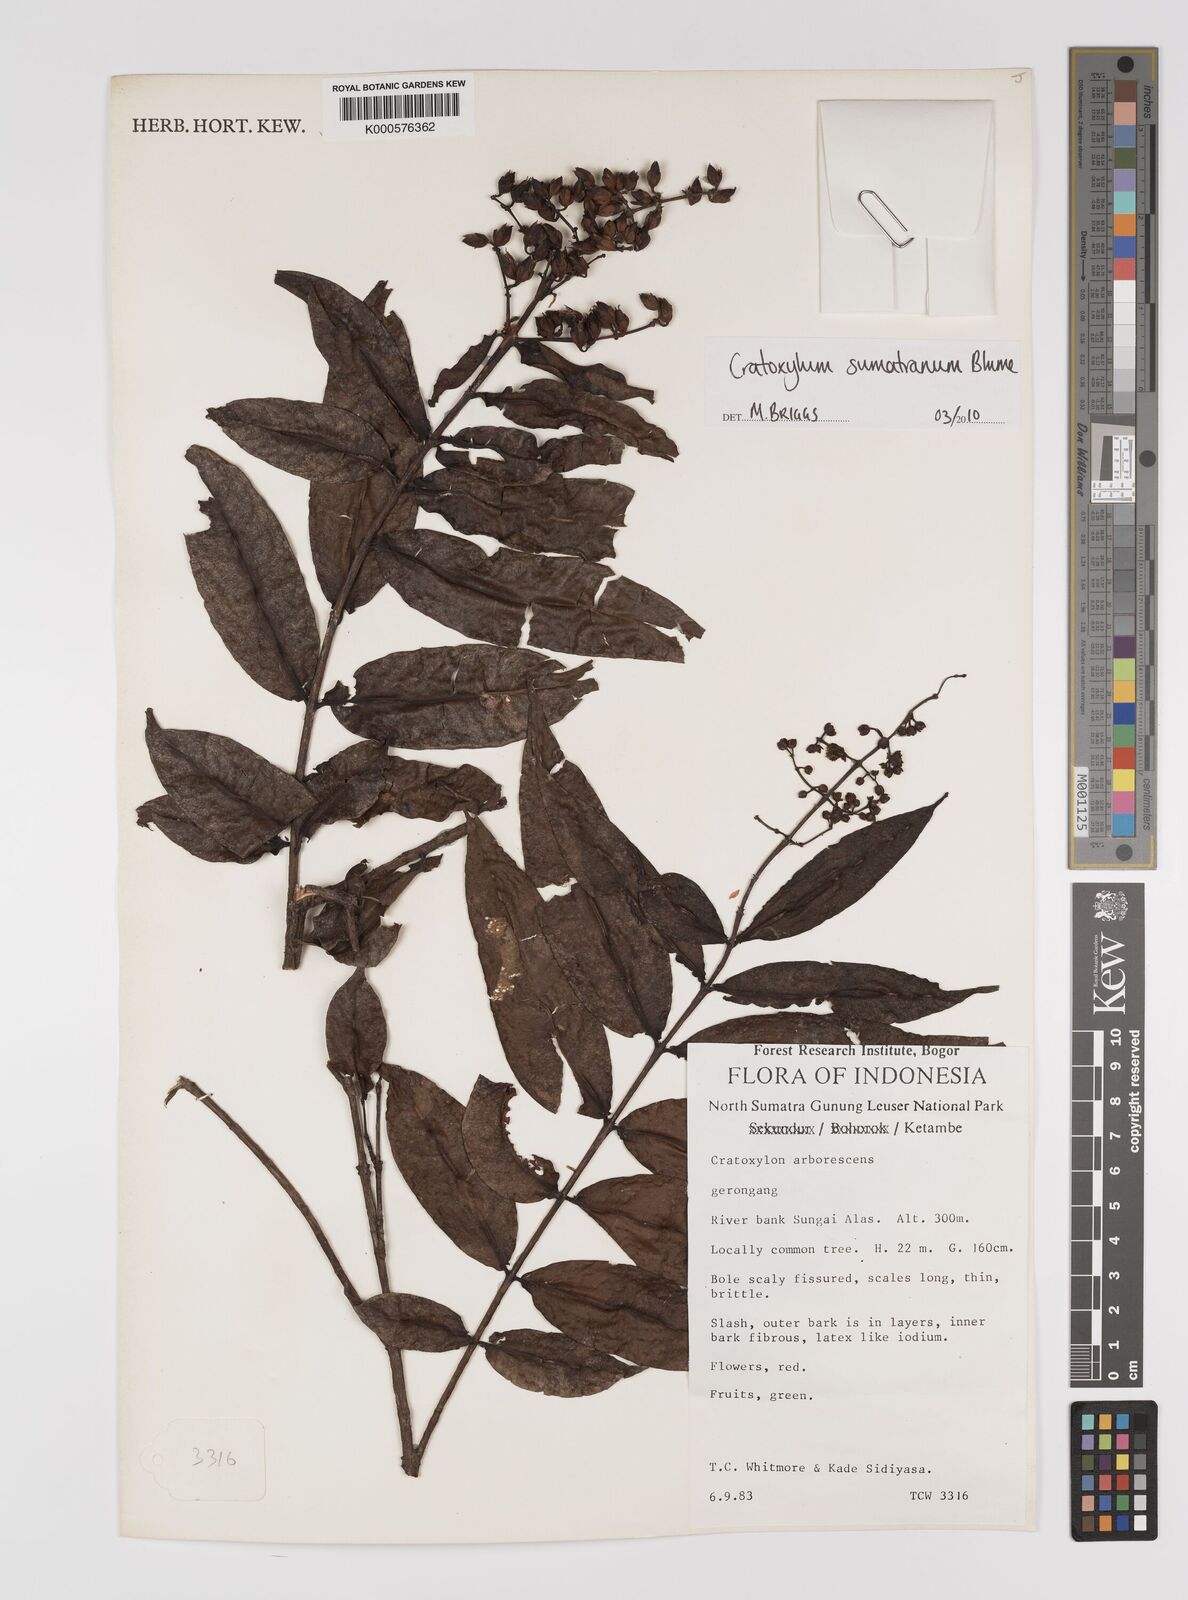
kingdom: Plantae
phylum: Tracheophyta
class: Magnoliopsida
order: Malpighiales
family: Hypericaceae
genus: Cratoxylum
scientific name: Cratoxylum sumatranum
